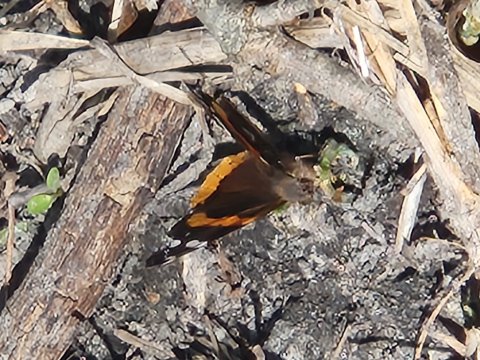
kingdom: Animalia
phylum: Arthropoda
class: Insecta
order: Lepidoptera
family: Nymphalidae
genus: Vanessa
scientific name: Vanessa atalanta
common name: Red Admiral
